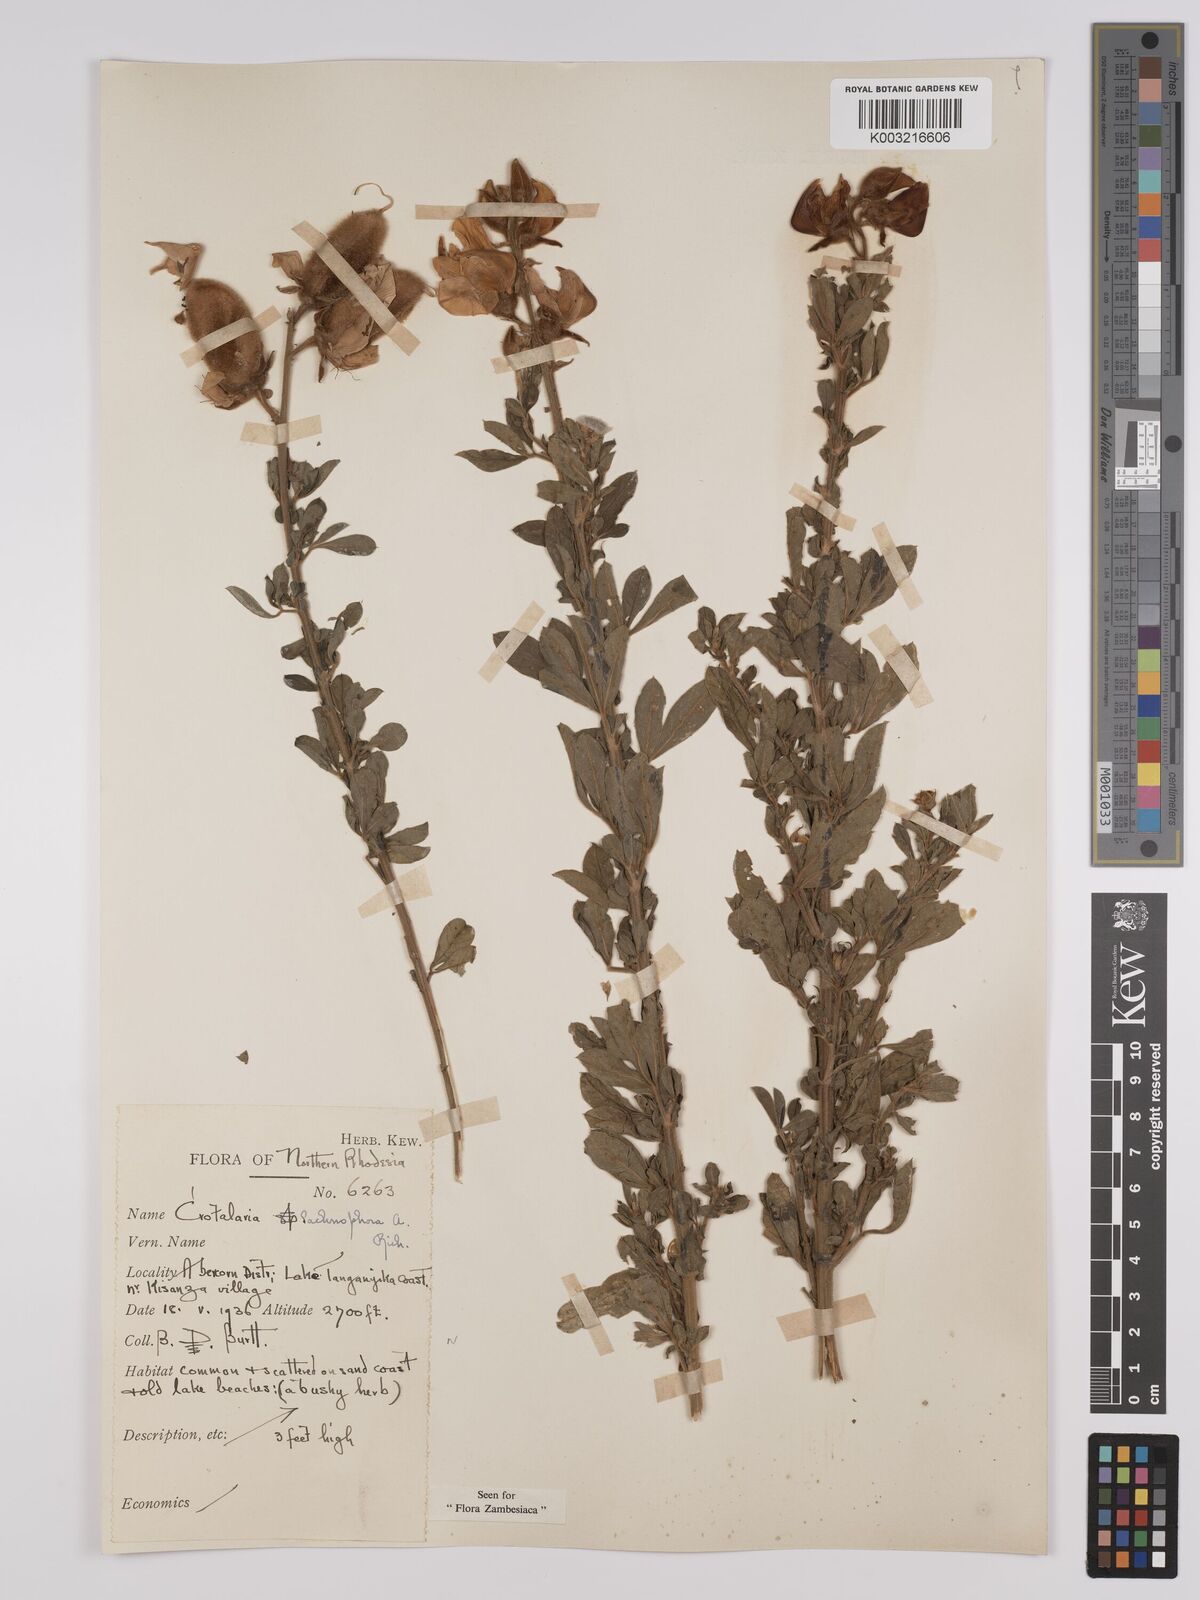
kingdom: Plantae
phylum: Tracheophyta
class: Magnoliopsida
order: Fabales
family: Fabaceae
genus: Crotalaria
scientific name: Crotalaria lachnophora
